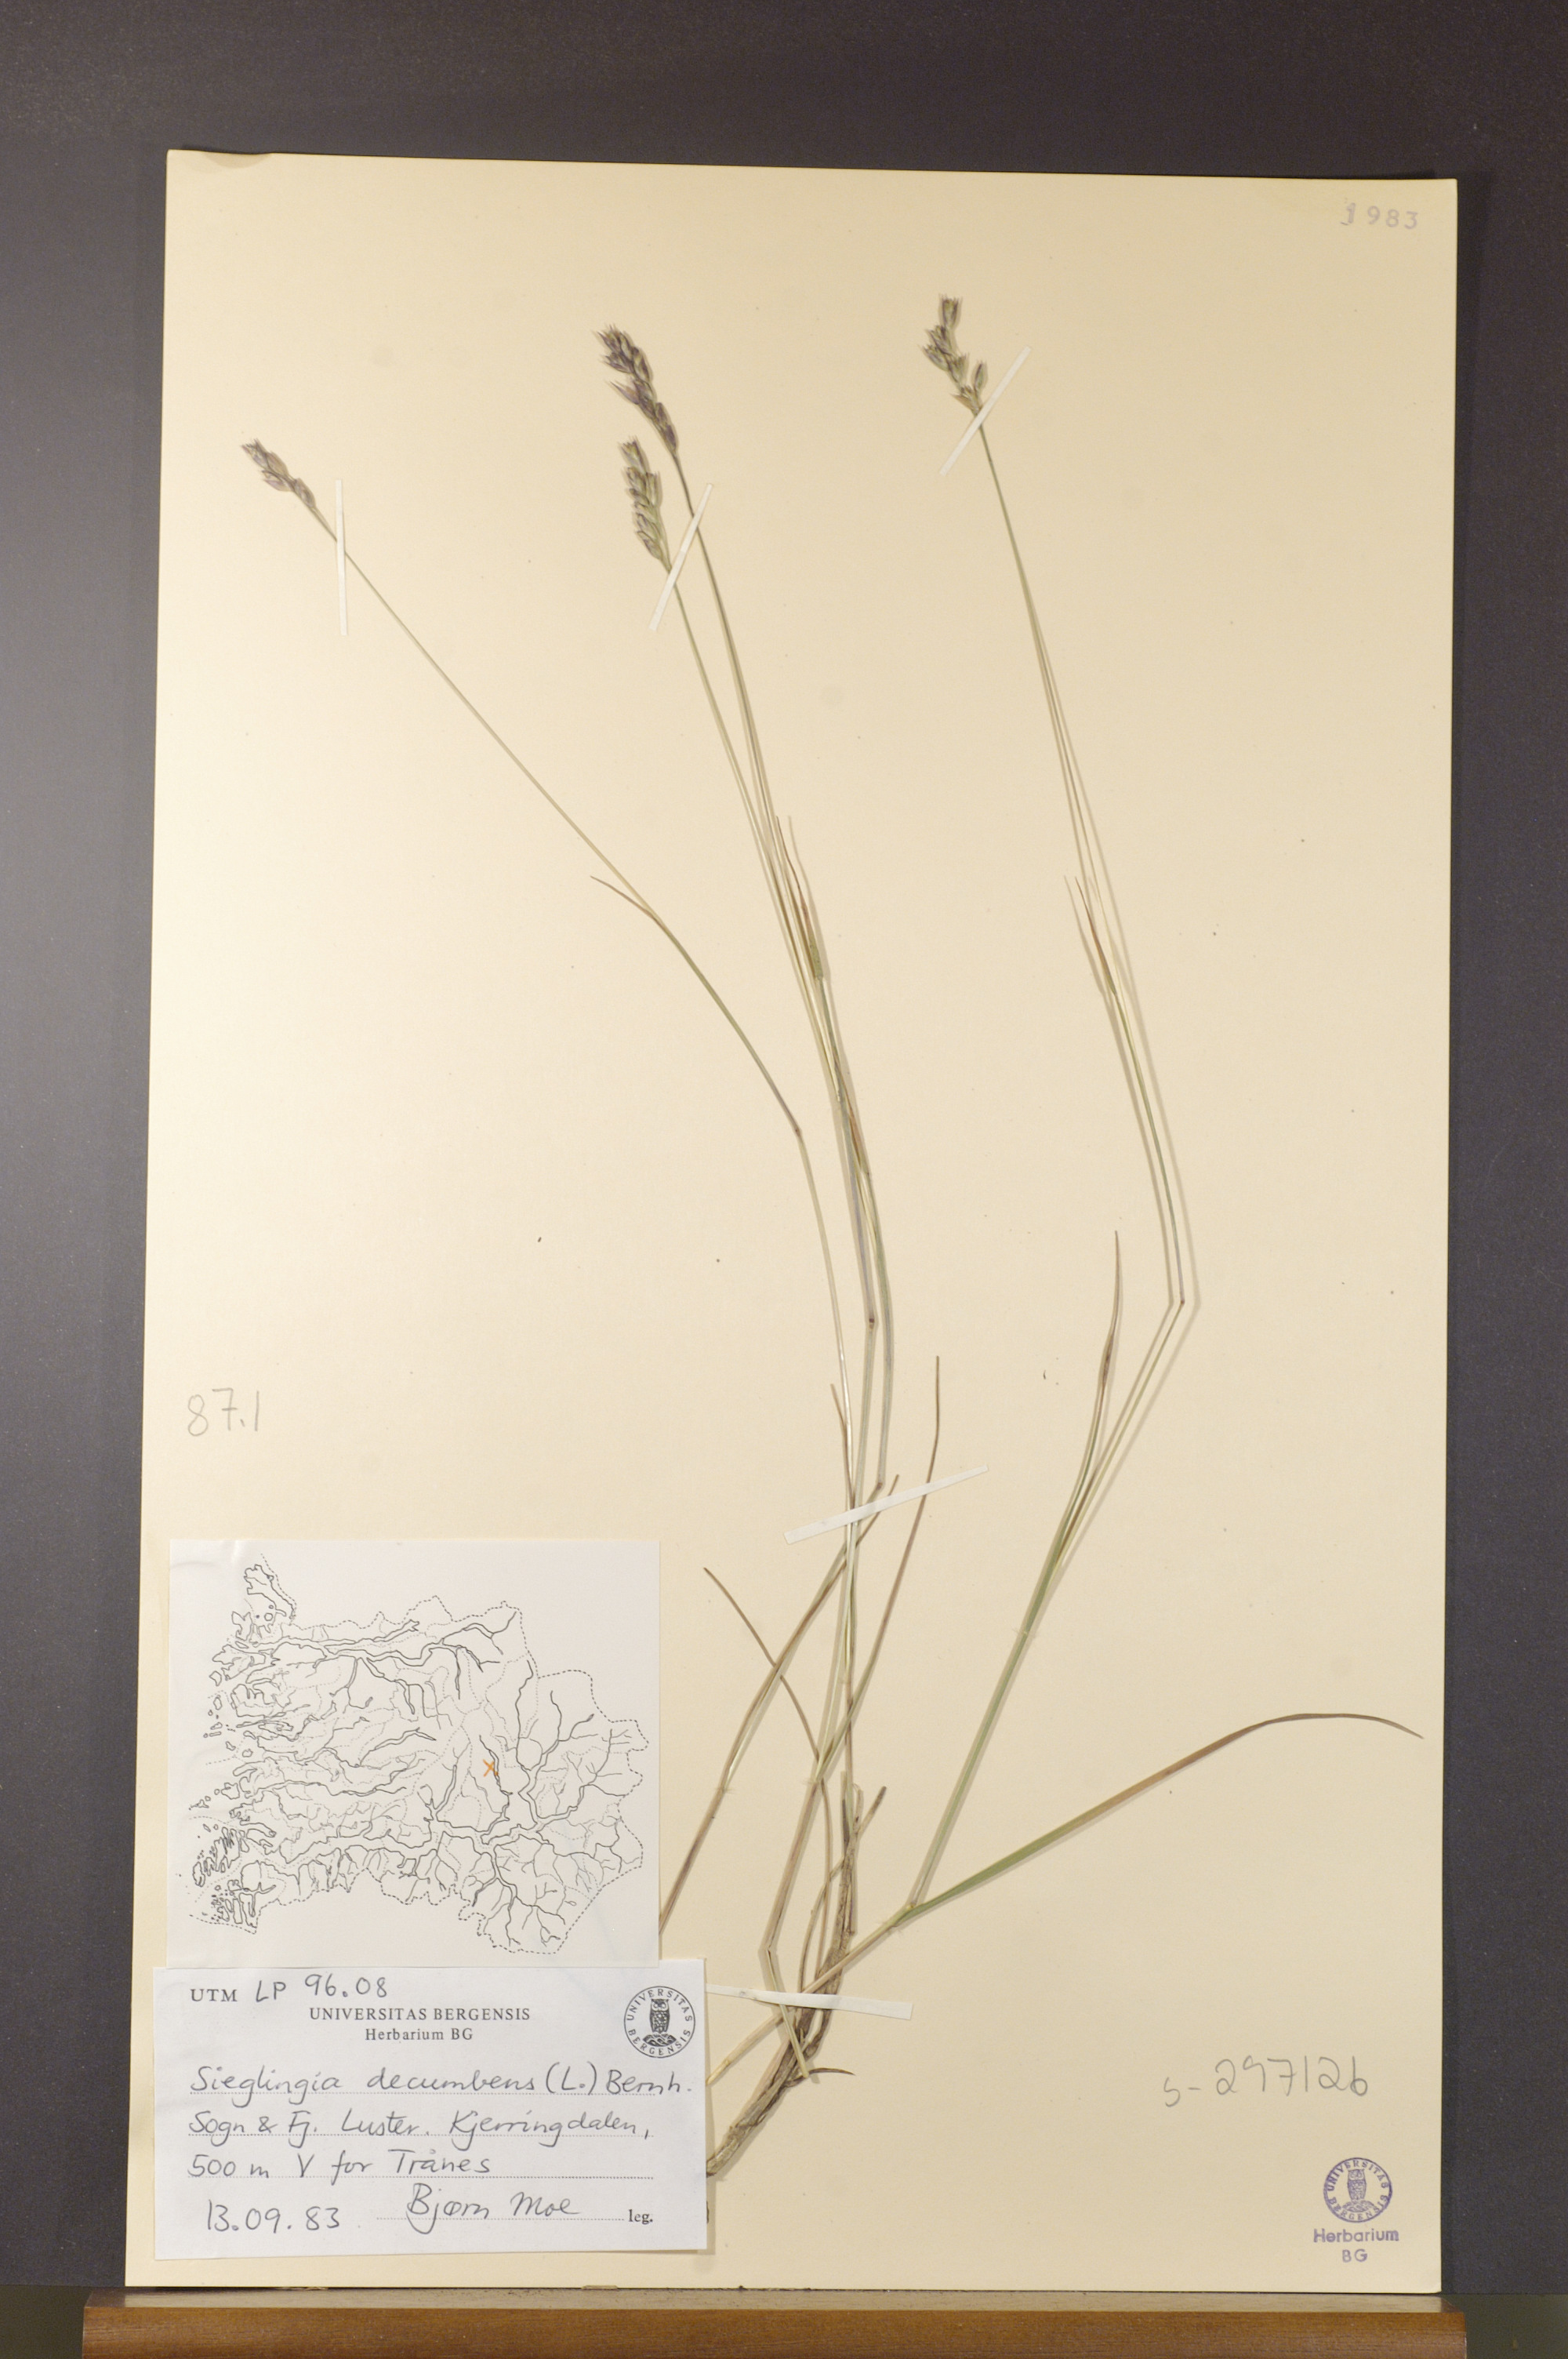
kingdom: Plantae
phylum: Tracheophyta
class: Liliopsida
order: Poales
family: Poaceae
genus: Danthonia
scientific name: Danthonia decumbens
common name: Common heathgrass
